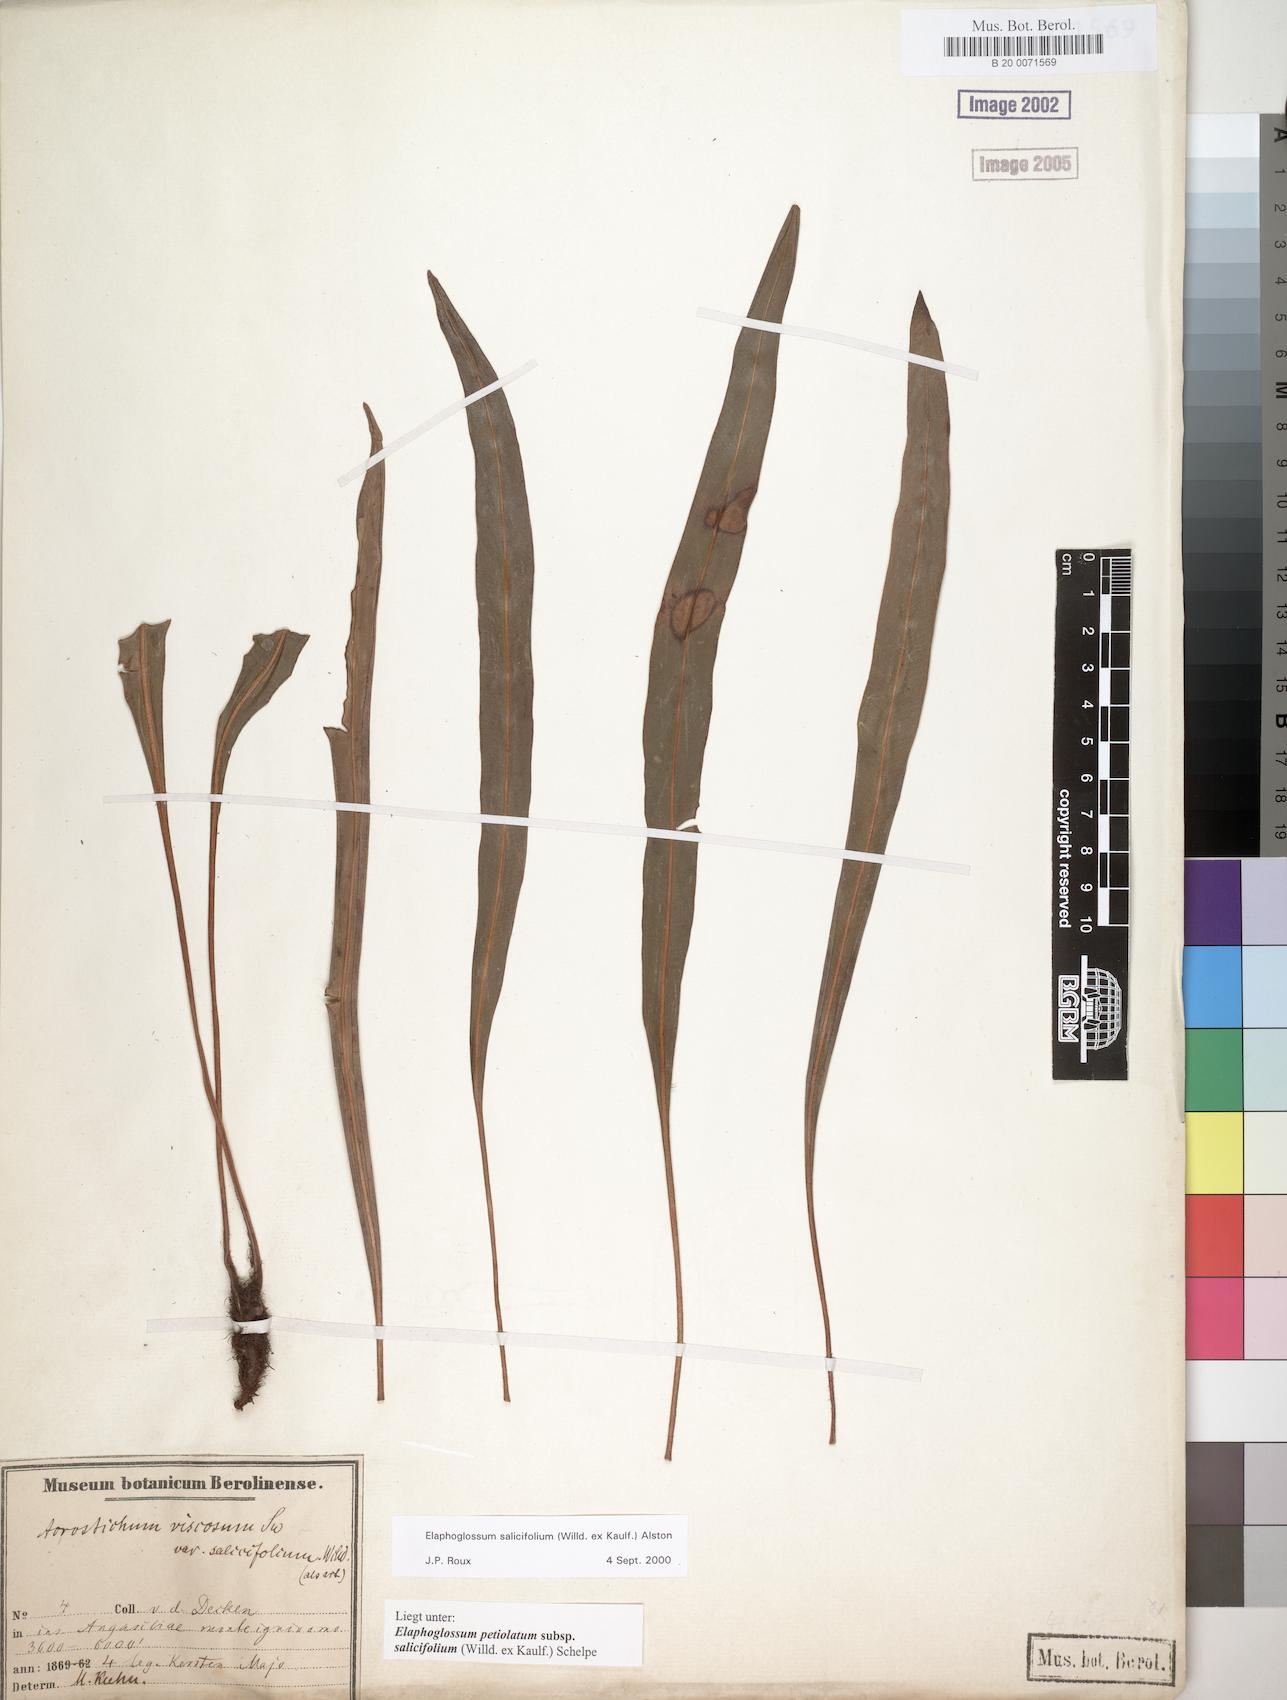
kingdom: Plantae
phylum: Tracheophyta
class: Polypodiopsida
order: Polypodiales
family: Dryopteridaceae
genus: Elaphoglossum
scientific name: Elaphoglossum lancifolium
